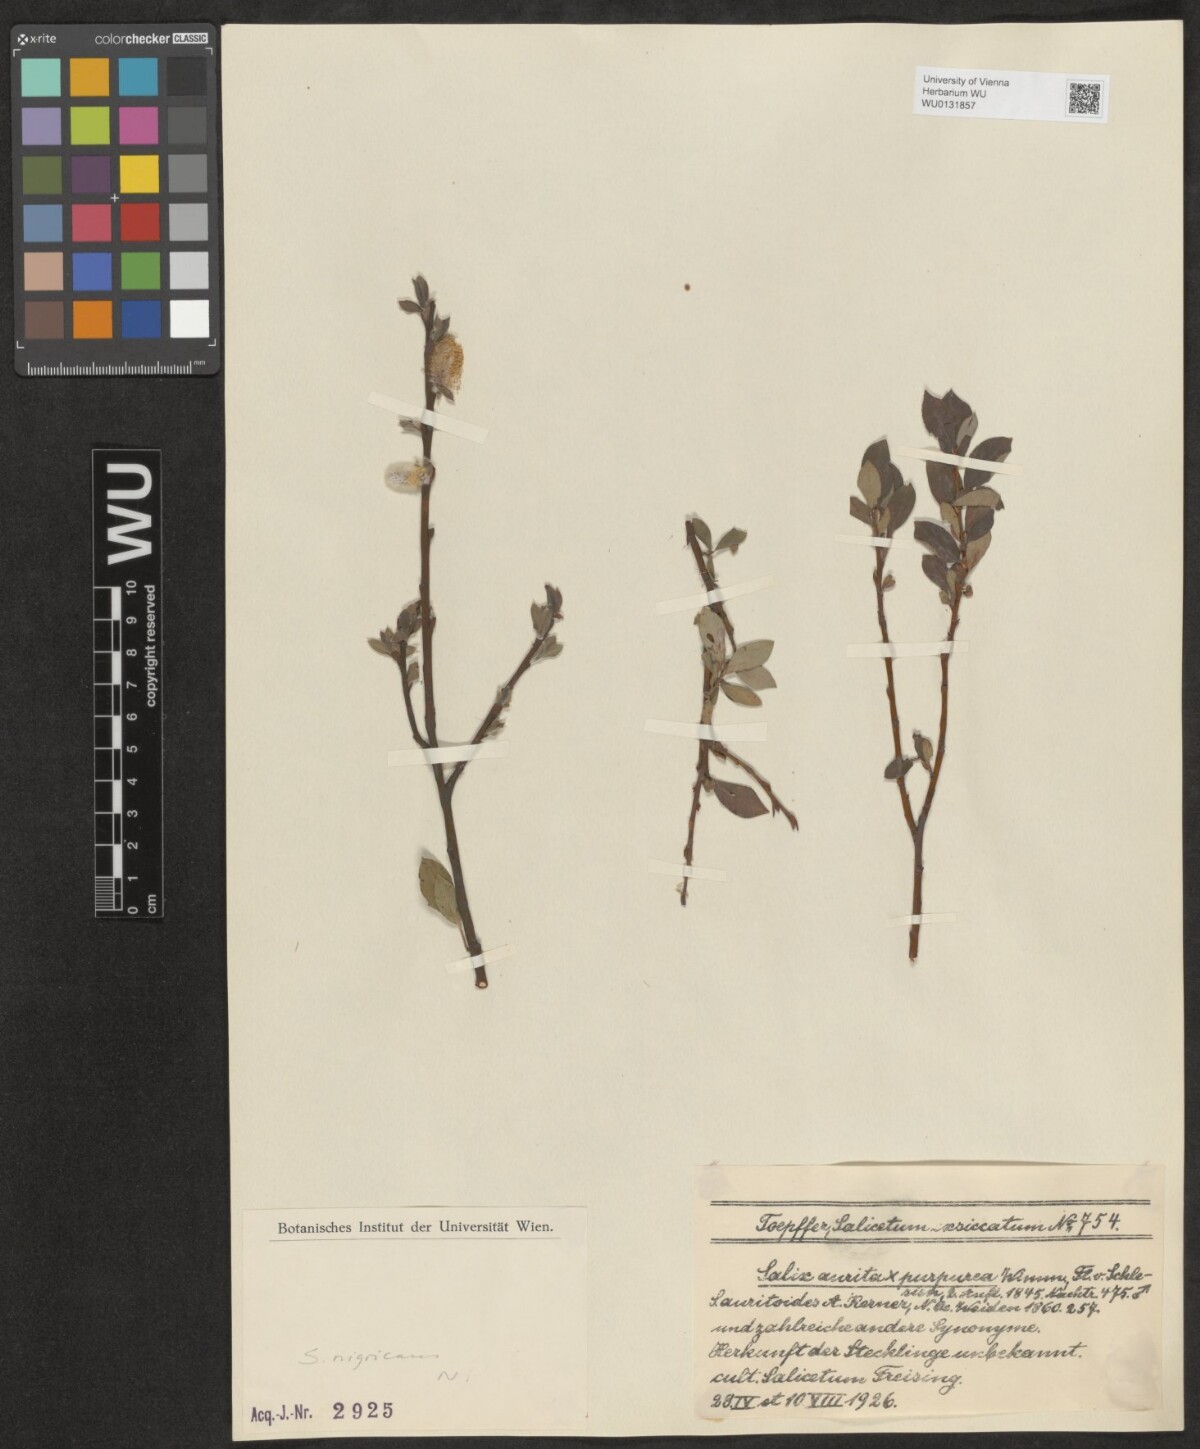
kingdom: Plantae
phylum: Tracheophyta
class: Magnoliopsida
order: Malpighiales
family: Salicaceae
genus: Salix
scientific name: Salix myrsinifolia
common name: Dark-leaved willow
